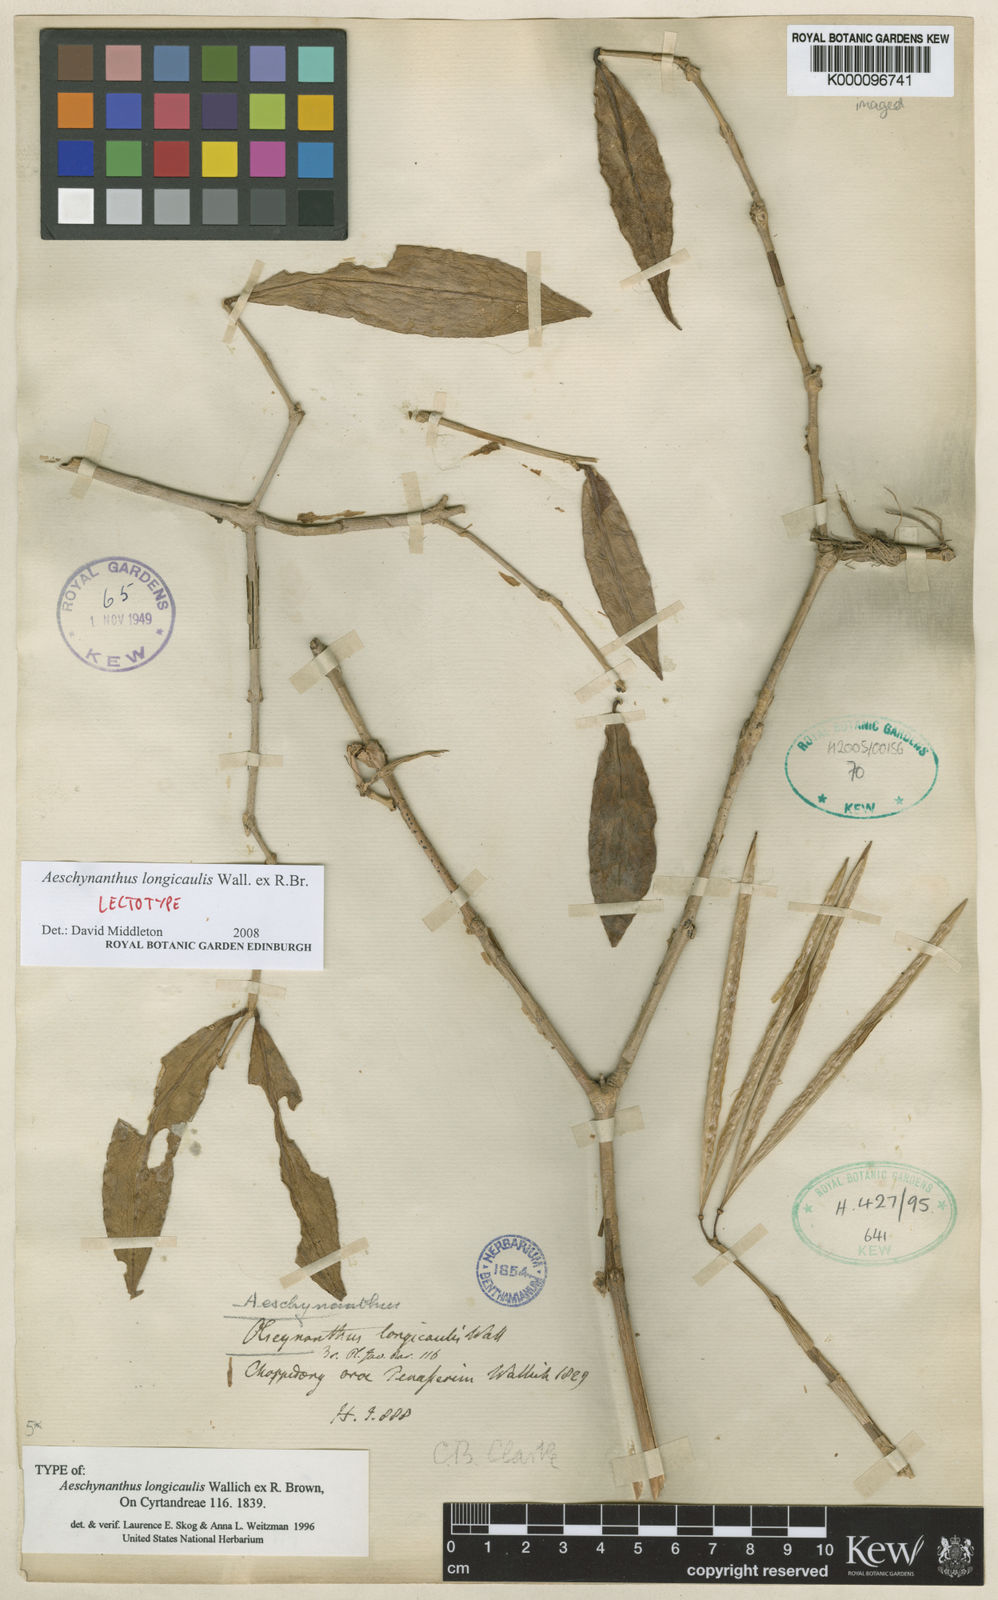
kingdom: Plantae
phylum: Tracheophyta
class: Magnoliopsida
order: Lamiales
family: Gesneriaceae
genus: Aeschynanthus
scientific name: Aeschynanthus longicaulis
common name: Zebra basketvine
